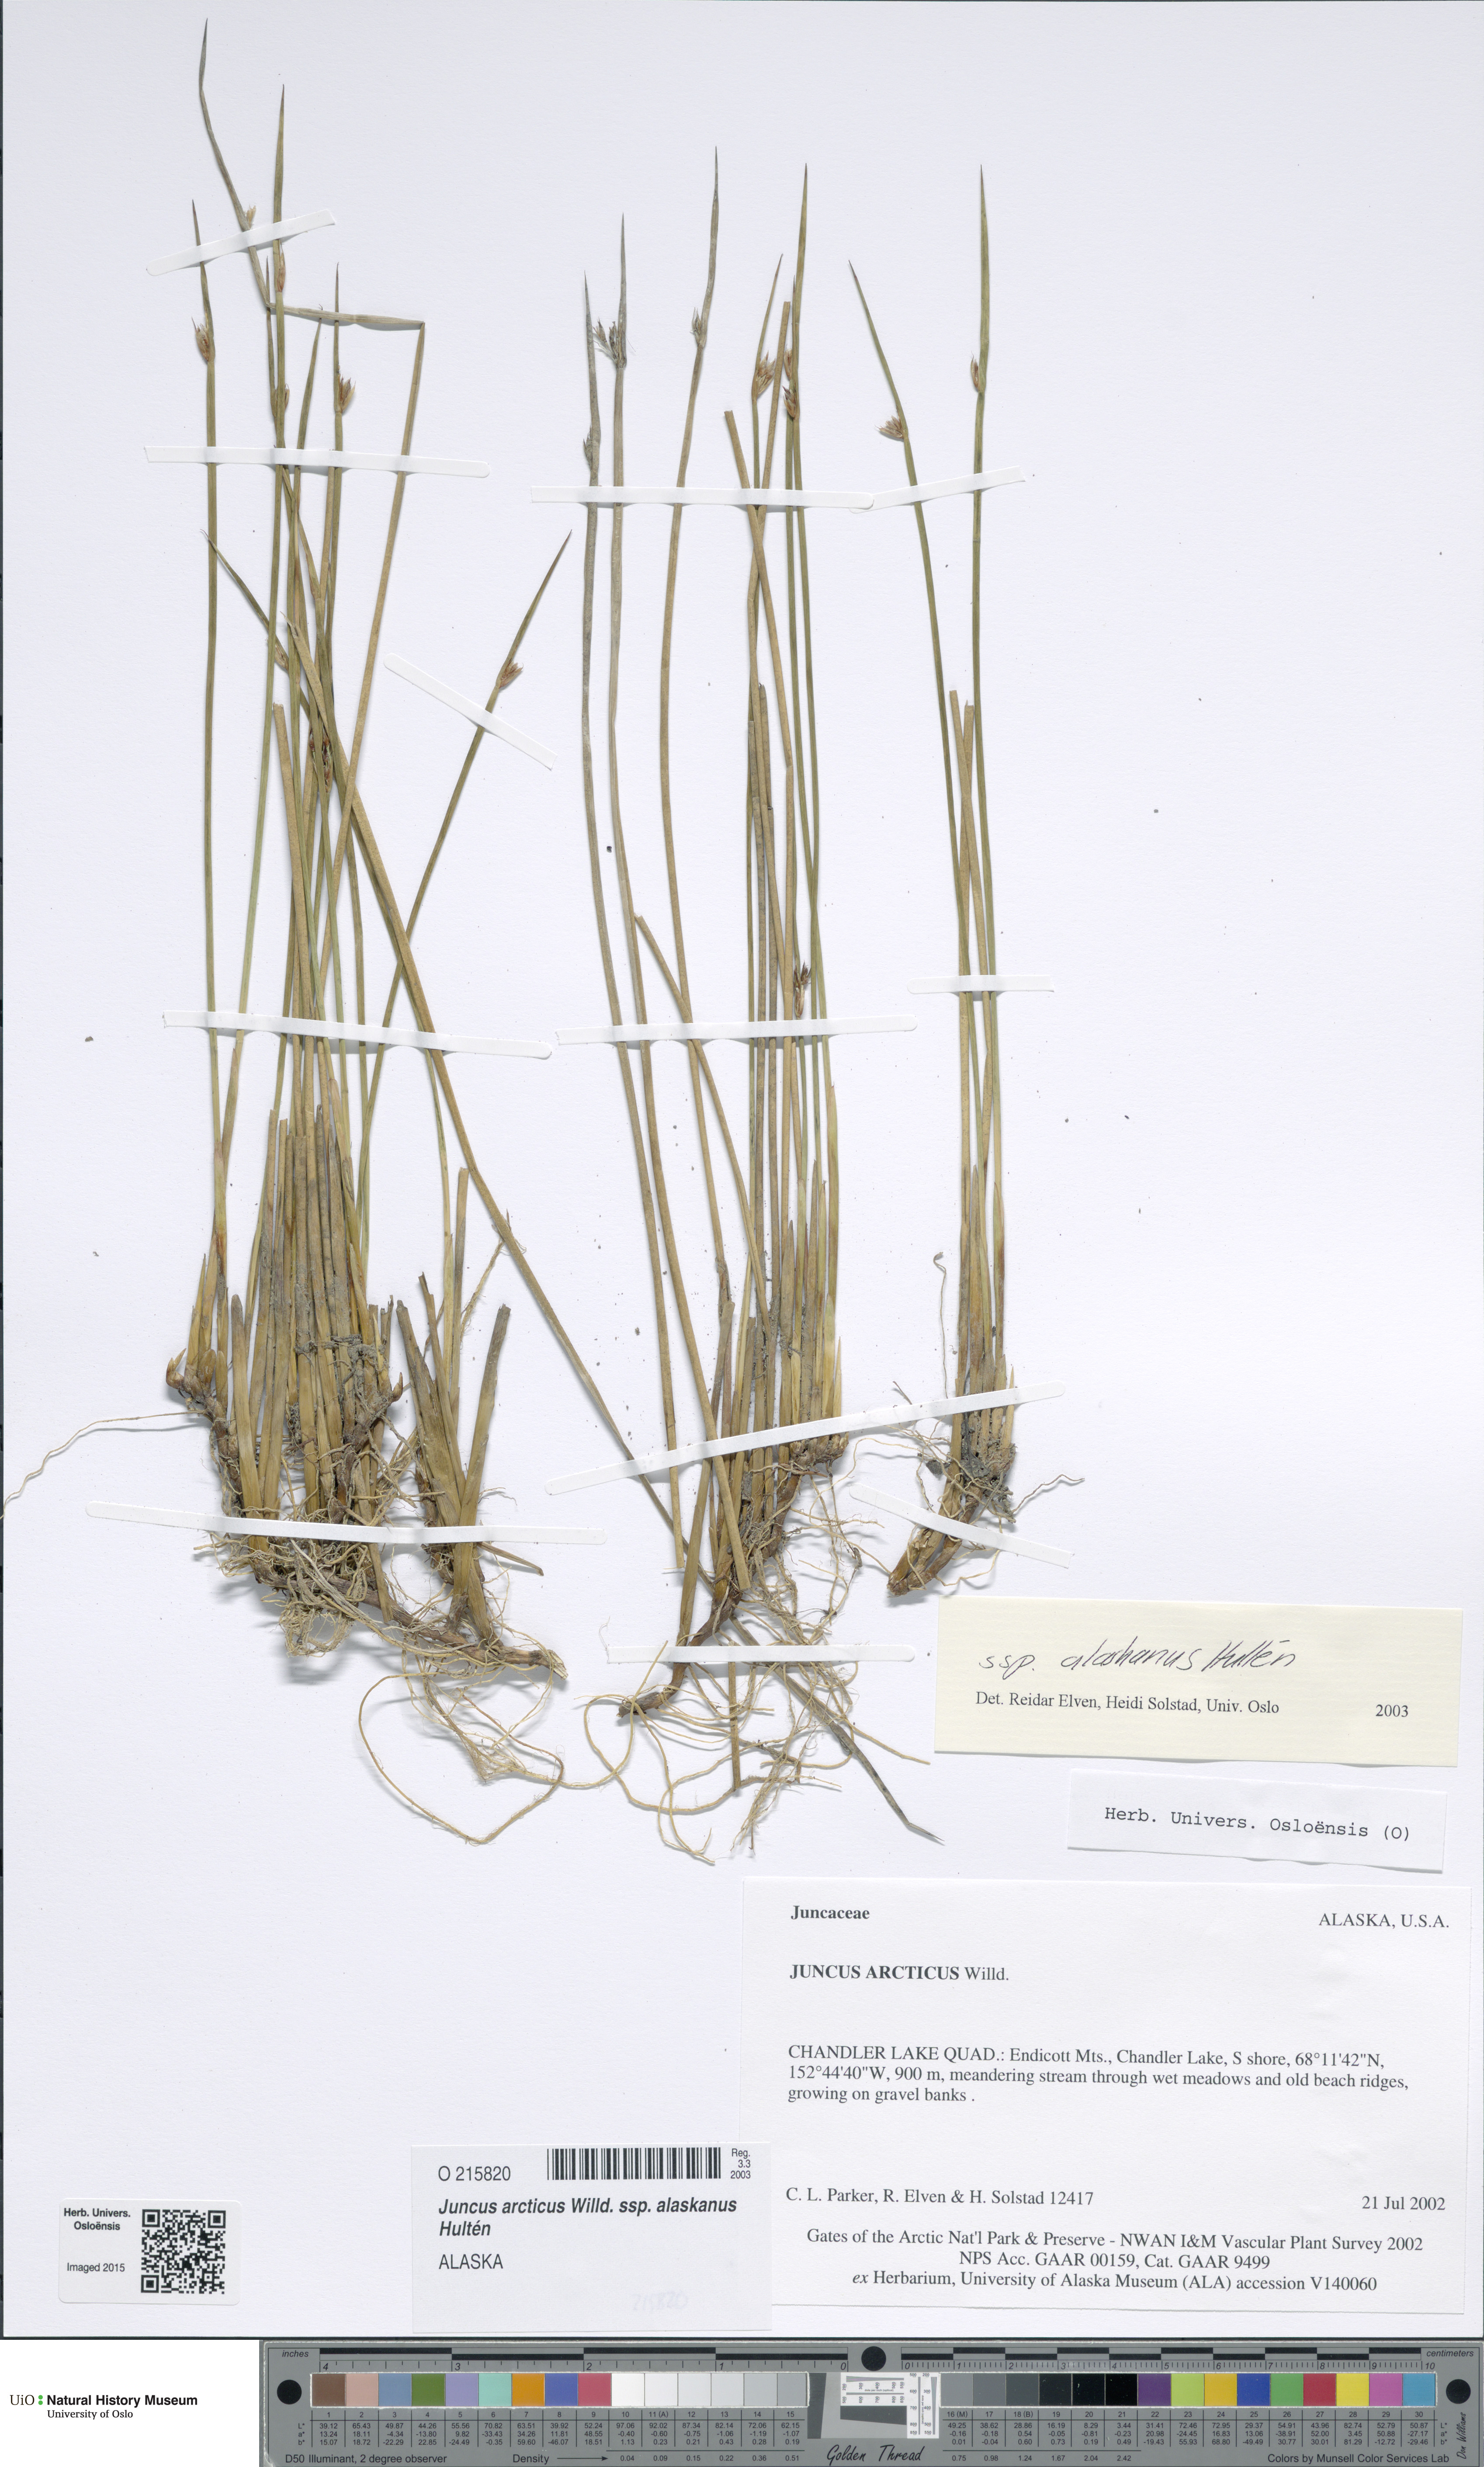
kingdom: Plantae
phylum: Tracheophyta
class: Liliopsida
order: Poales
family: Juncaceae
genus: Juncus
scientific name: Juncus arcticus
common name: Arctic rush
